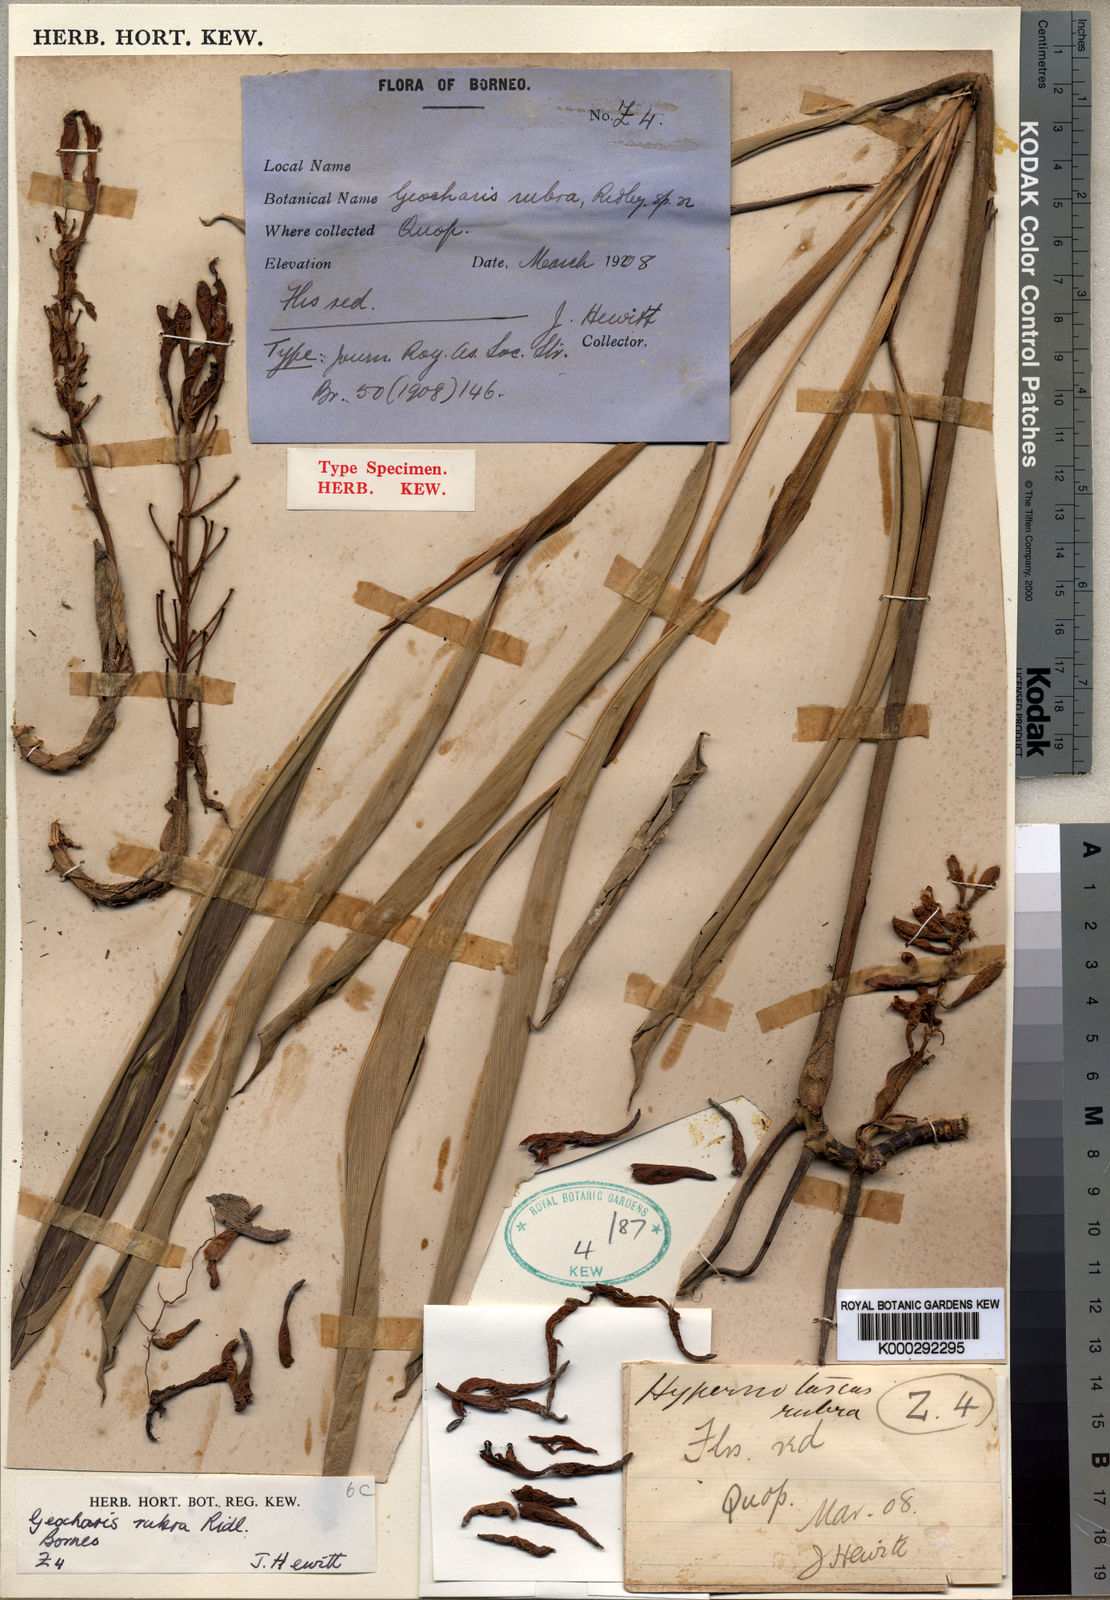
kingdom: Plantae
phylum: Tracheophyta
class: Liliopsida
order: Zingiberales
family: Zingiberaceae
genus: Geocharis
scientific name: Geocharis rubra
